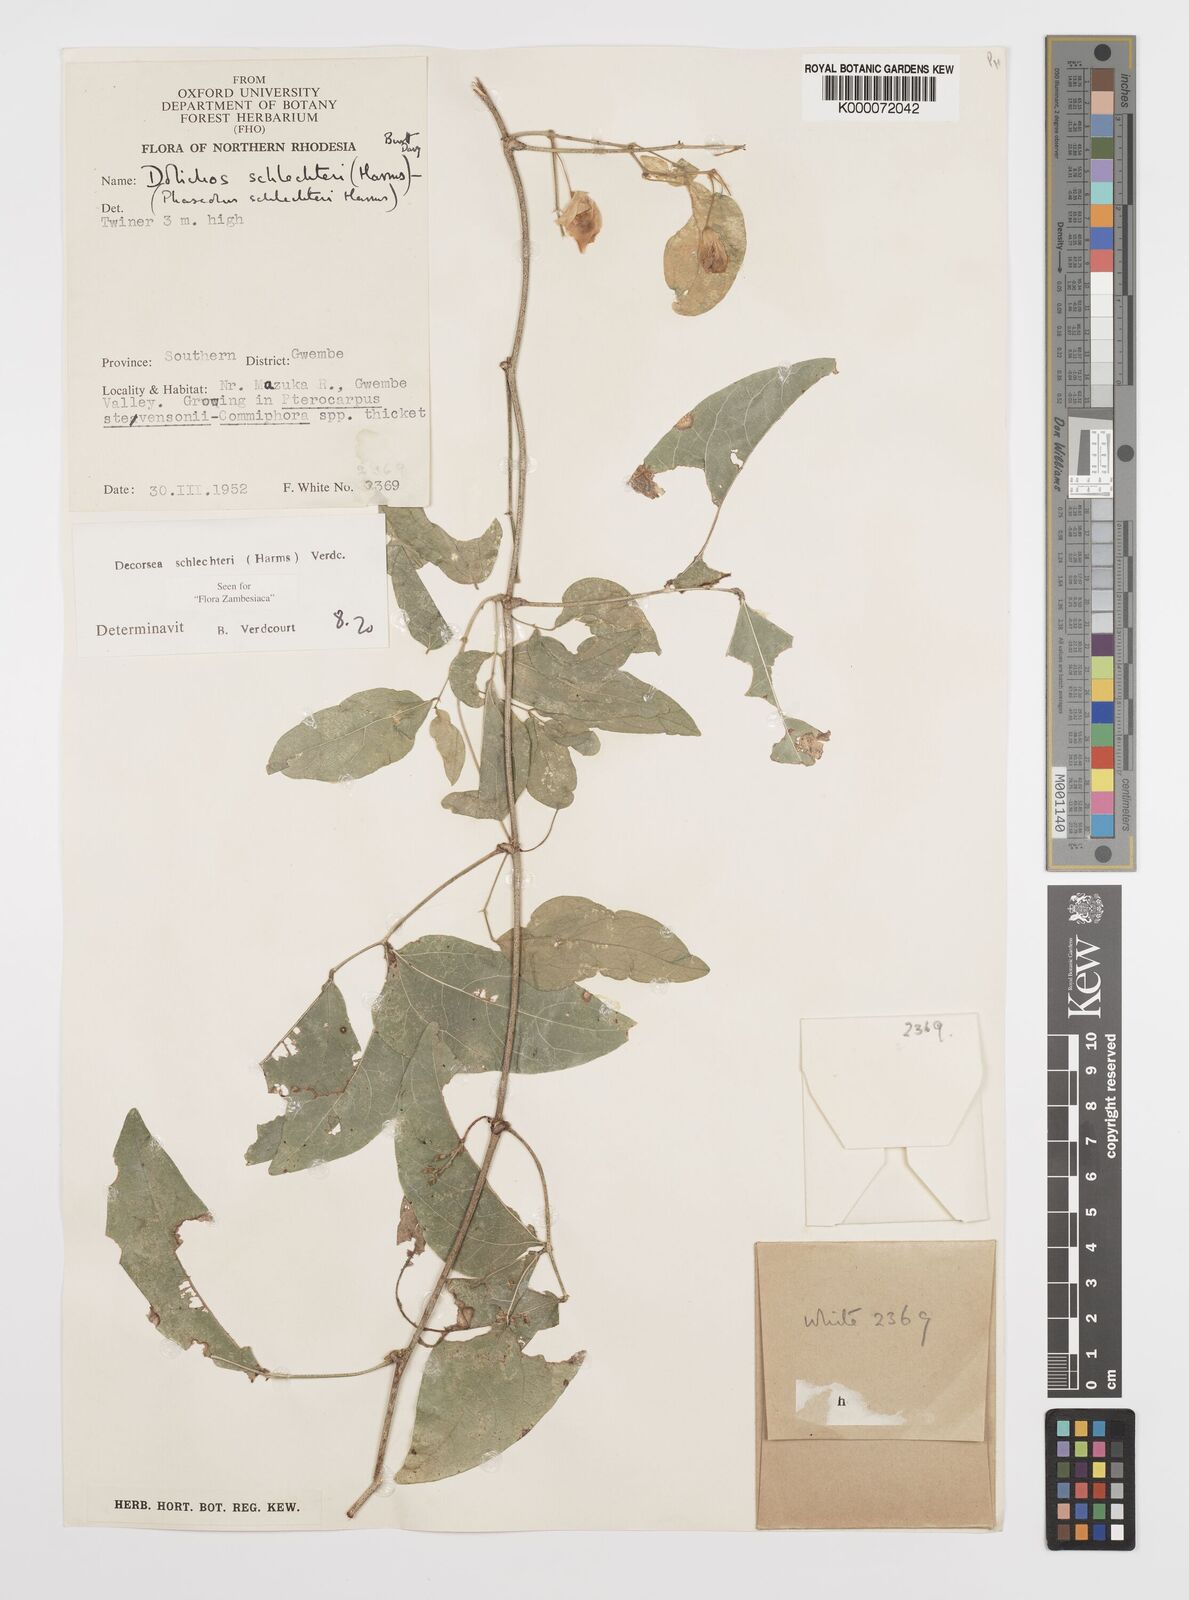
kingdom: Plantae
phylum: Tracheophyta
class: Magnoliopsida
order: Fabales
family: Fabaceae
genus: Decorsea
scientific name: Decorsea schlechteri
